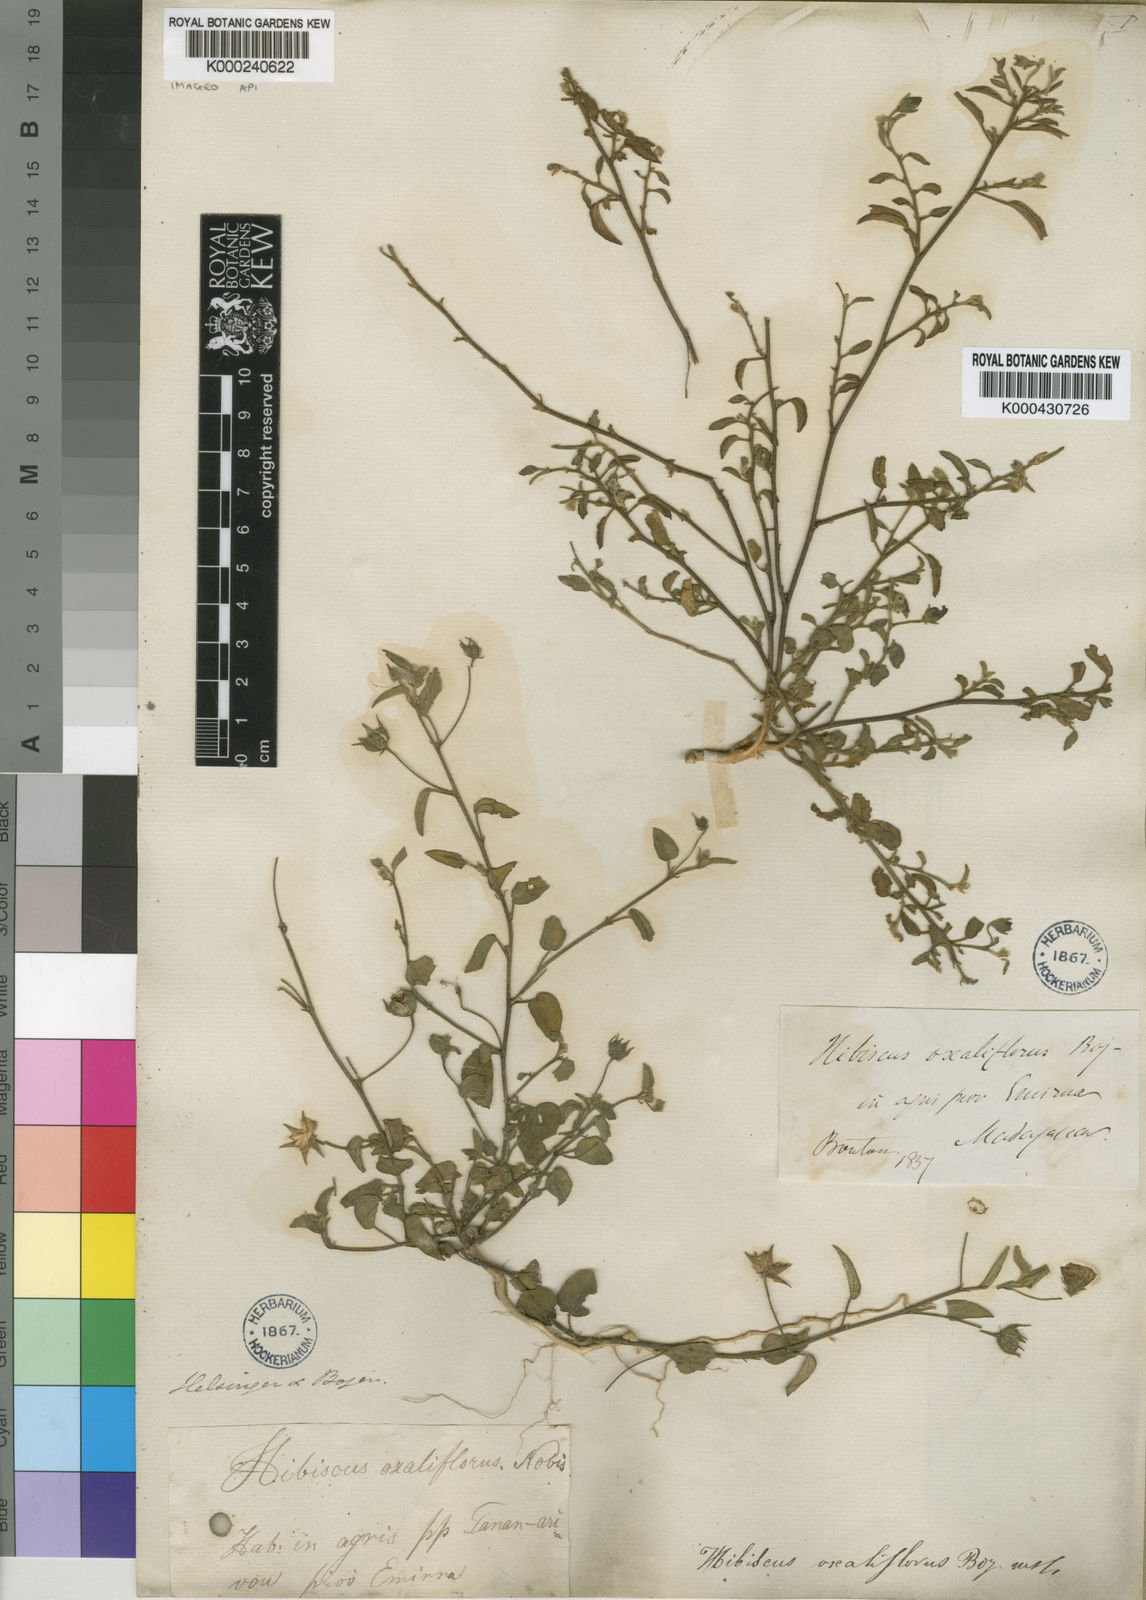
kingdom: Plantae
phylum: Tracheophyta
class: Magnoliopsida
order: Malvales
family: Malvaceae
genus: Hibiscus
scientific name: Hibiscus
